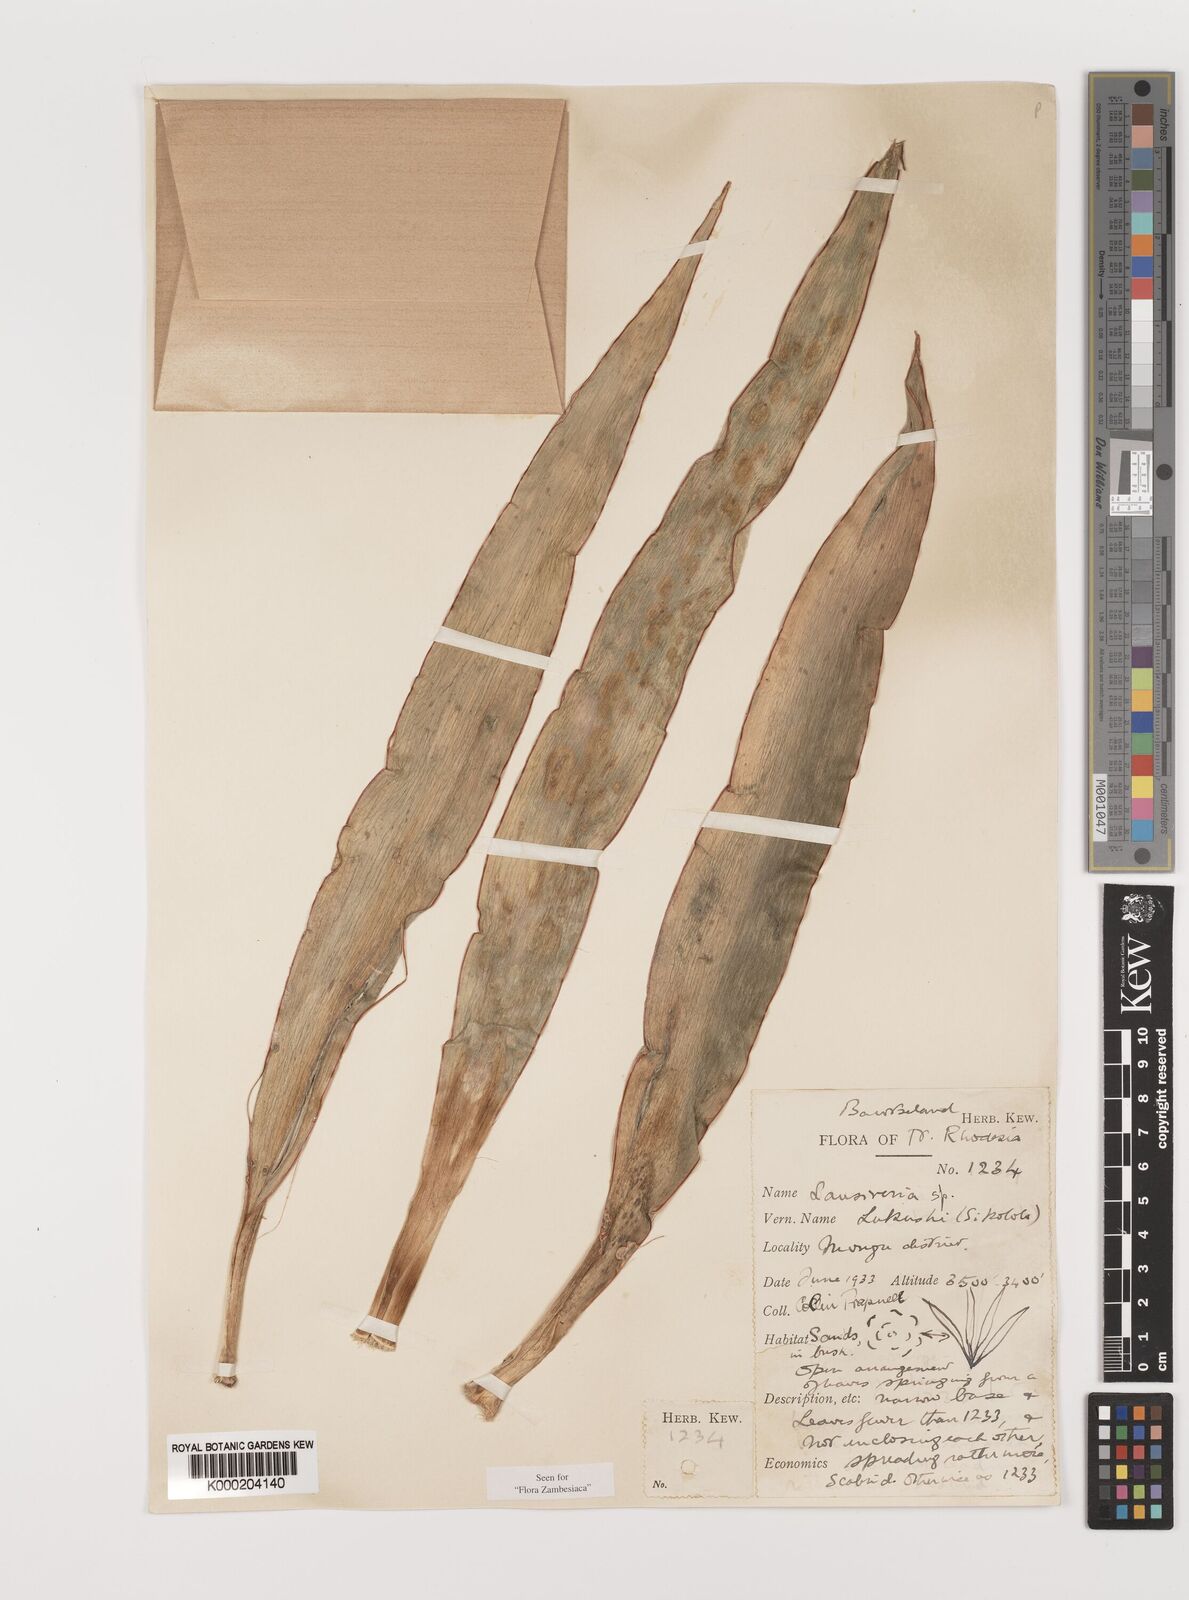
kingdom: Plantae
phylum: Tracheophyta
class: Liliopsida
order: Asparagales
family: Asparagaceae
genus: Dracaena
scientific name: Dracaena
